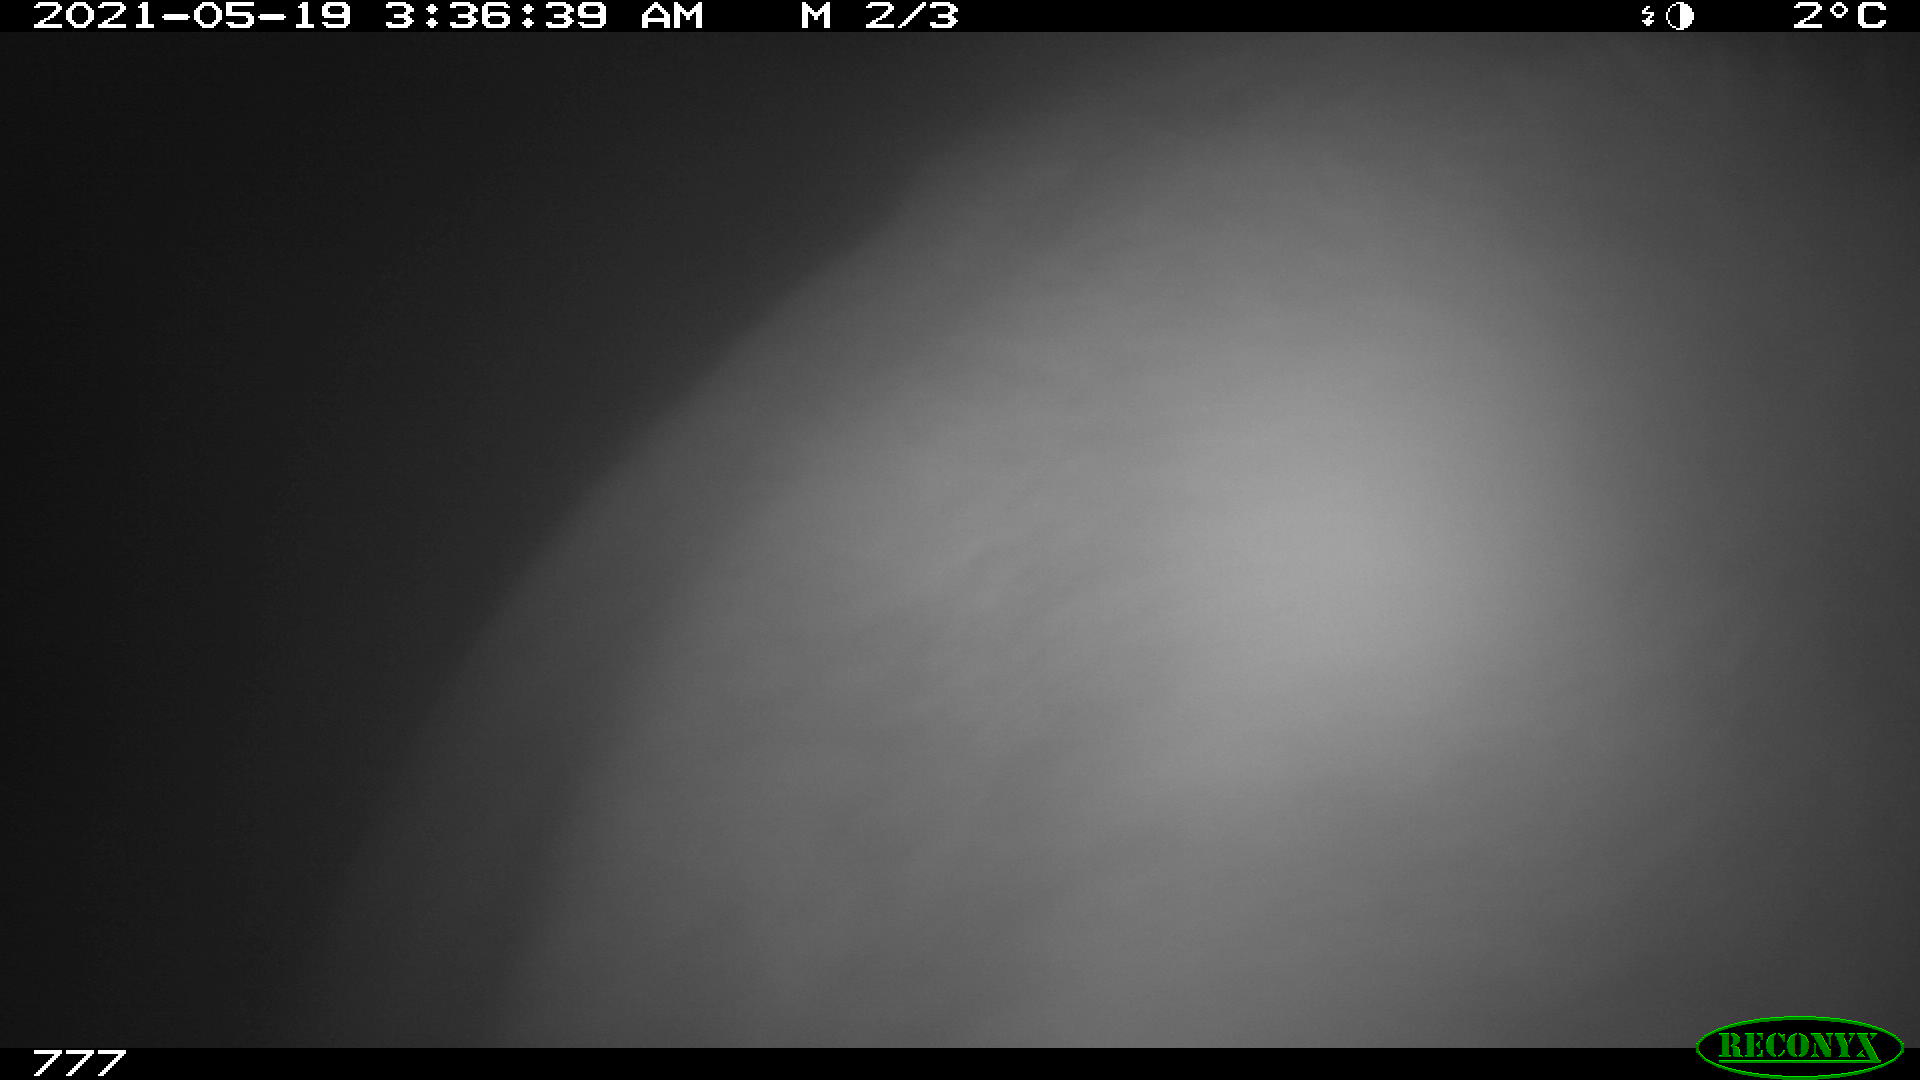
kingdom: Animalia
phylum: Chordata
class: Mammalia
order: Artiodactyla
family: Bovidae
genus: Bos
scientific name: Bos taurus
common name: Domesticated cattle
